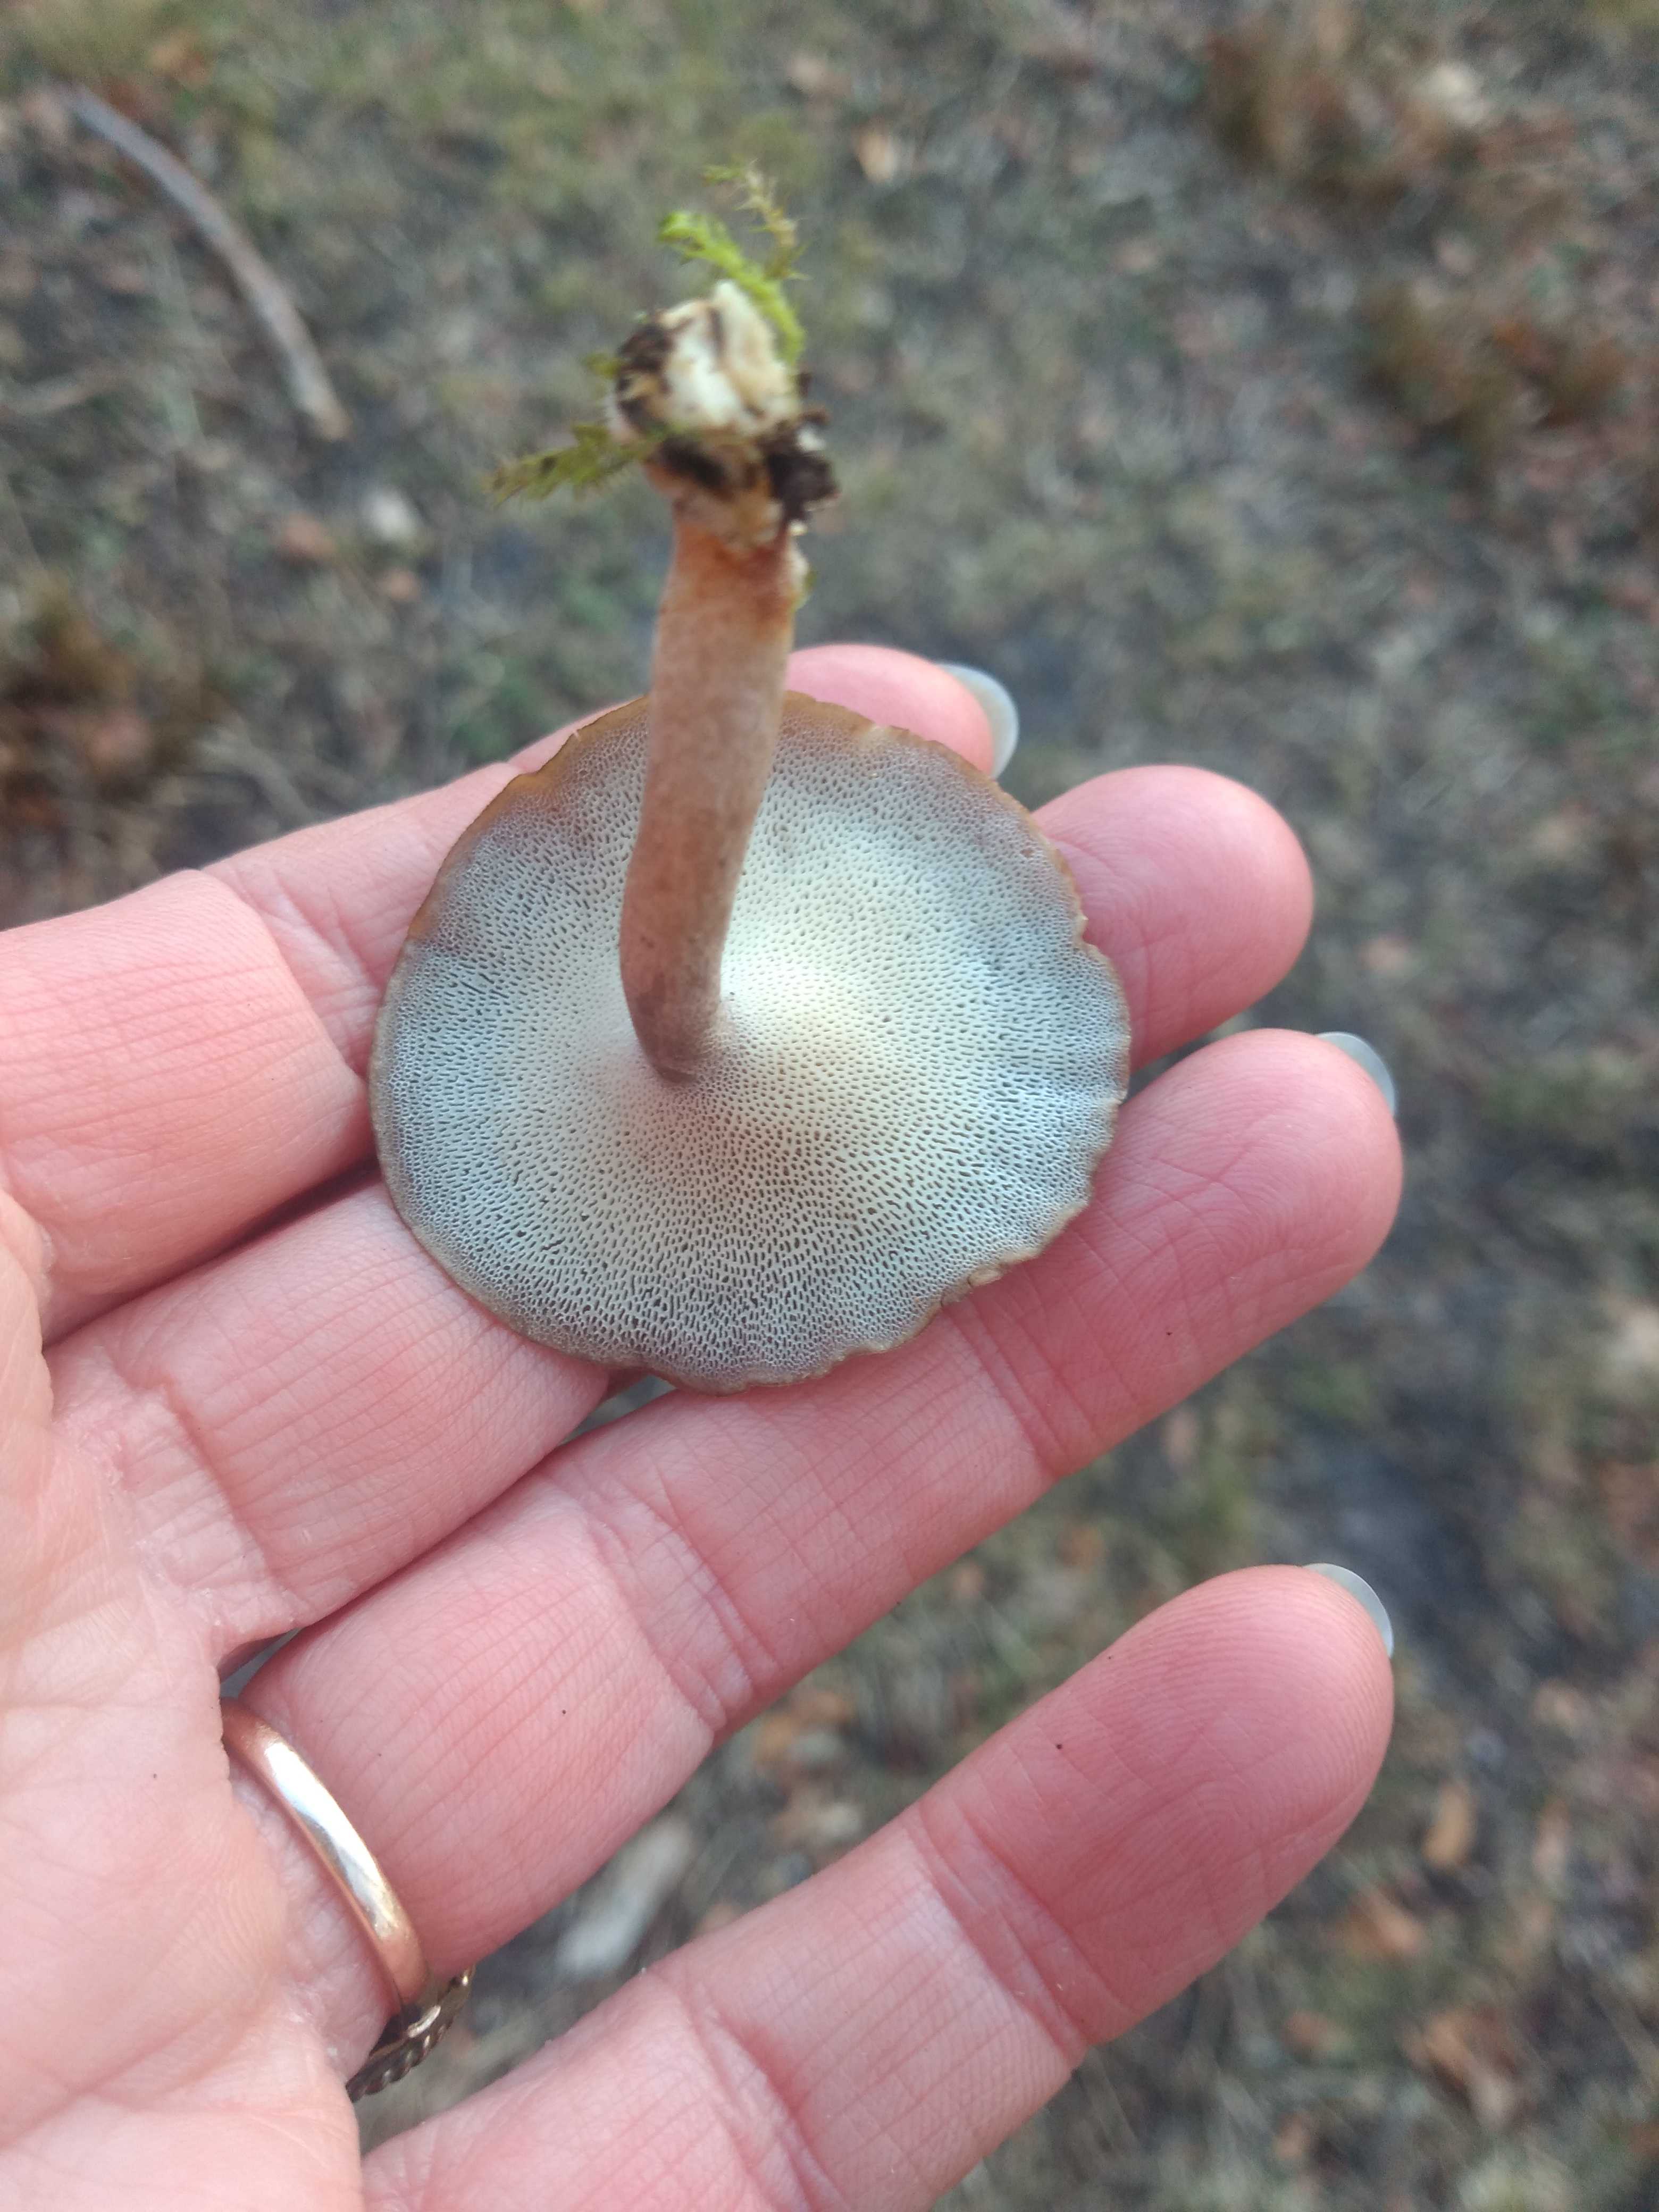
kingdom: Fungi
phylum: Basidiomycota
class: Agaricomycetes
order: Polyporales
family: Polyporaceae
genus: Lentinus
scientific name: Lentinus brumalis
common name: vinter-stilkporesvamp
